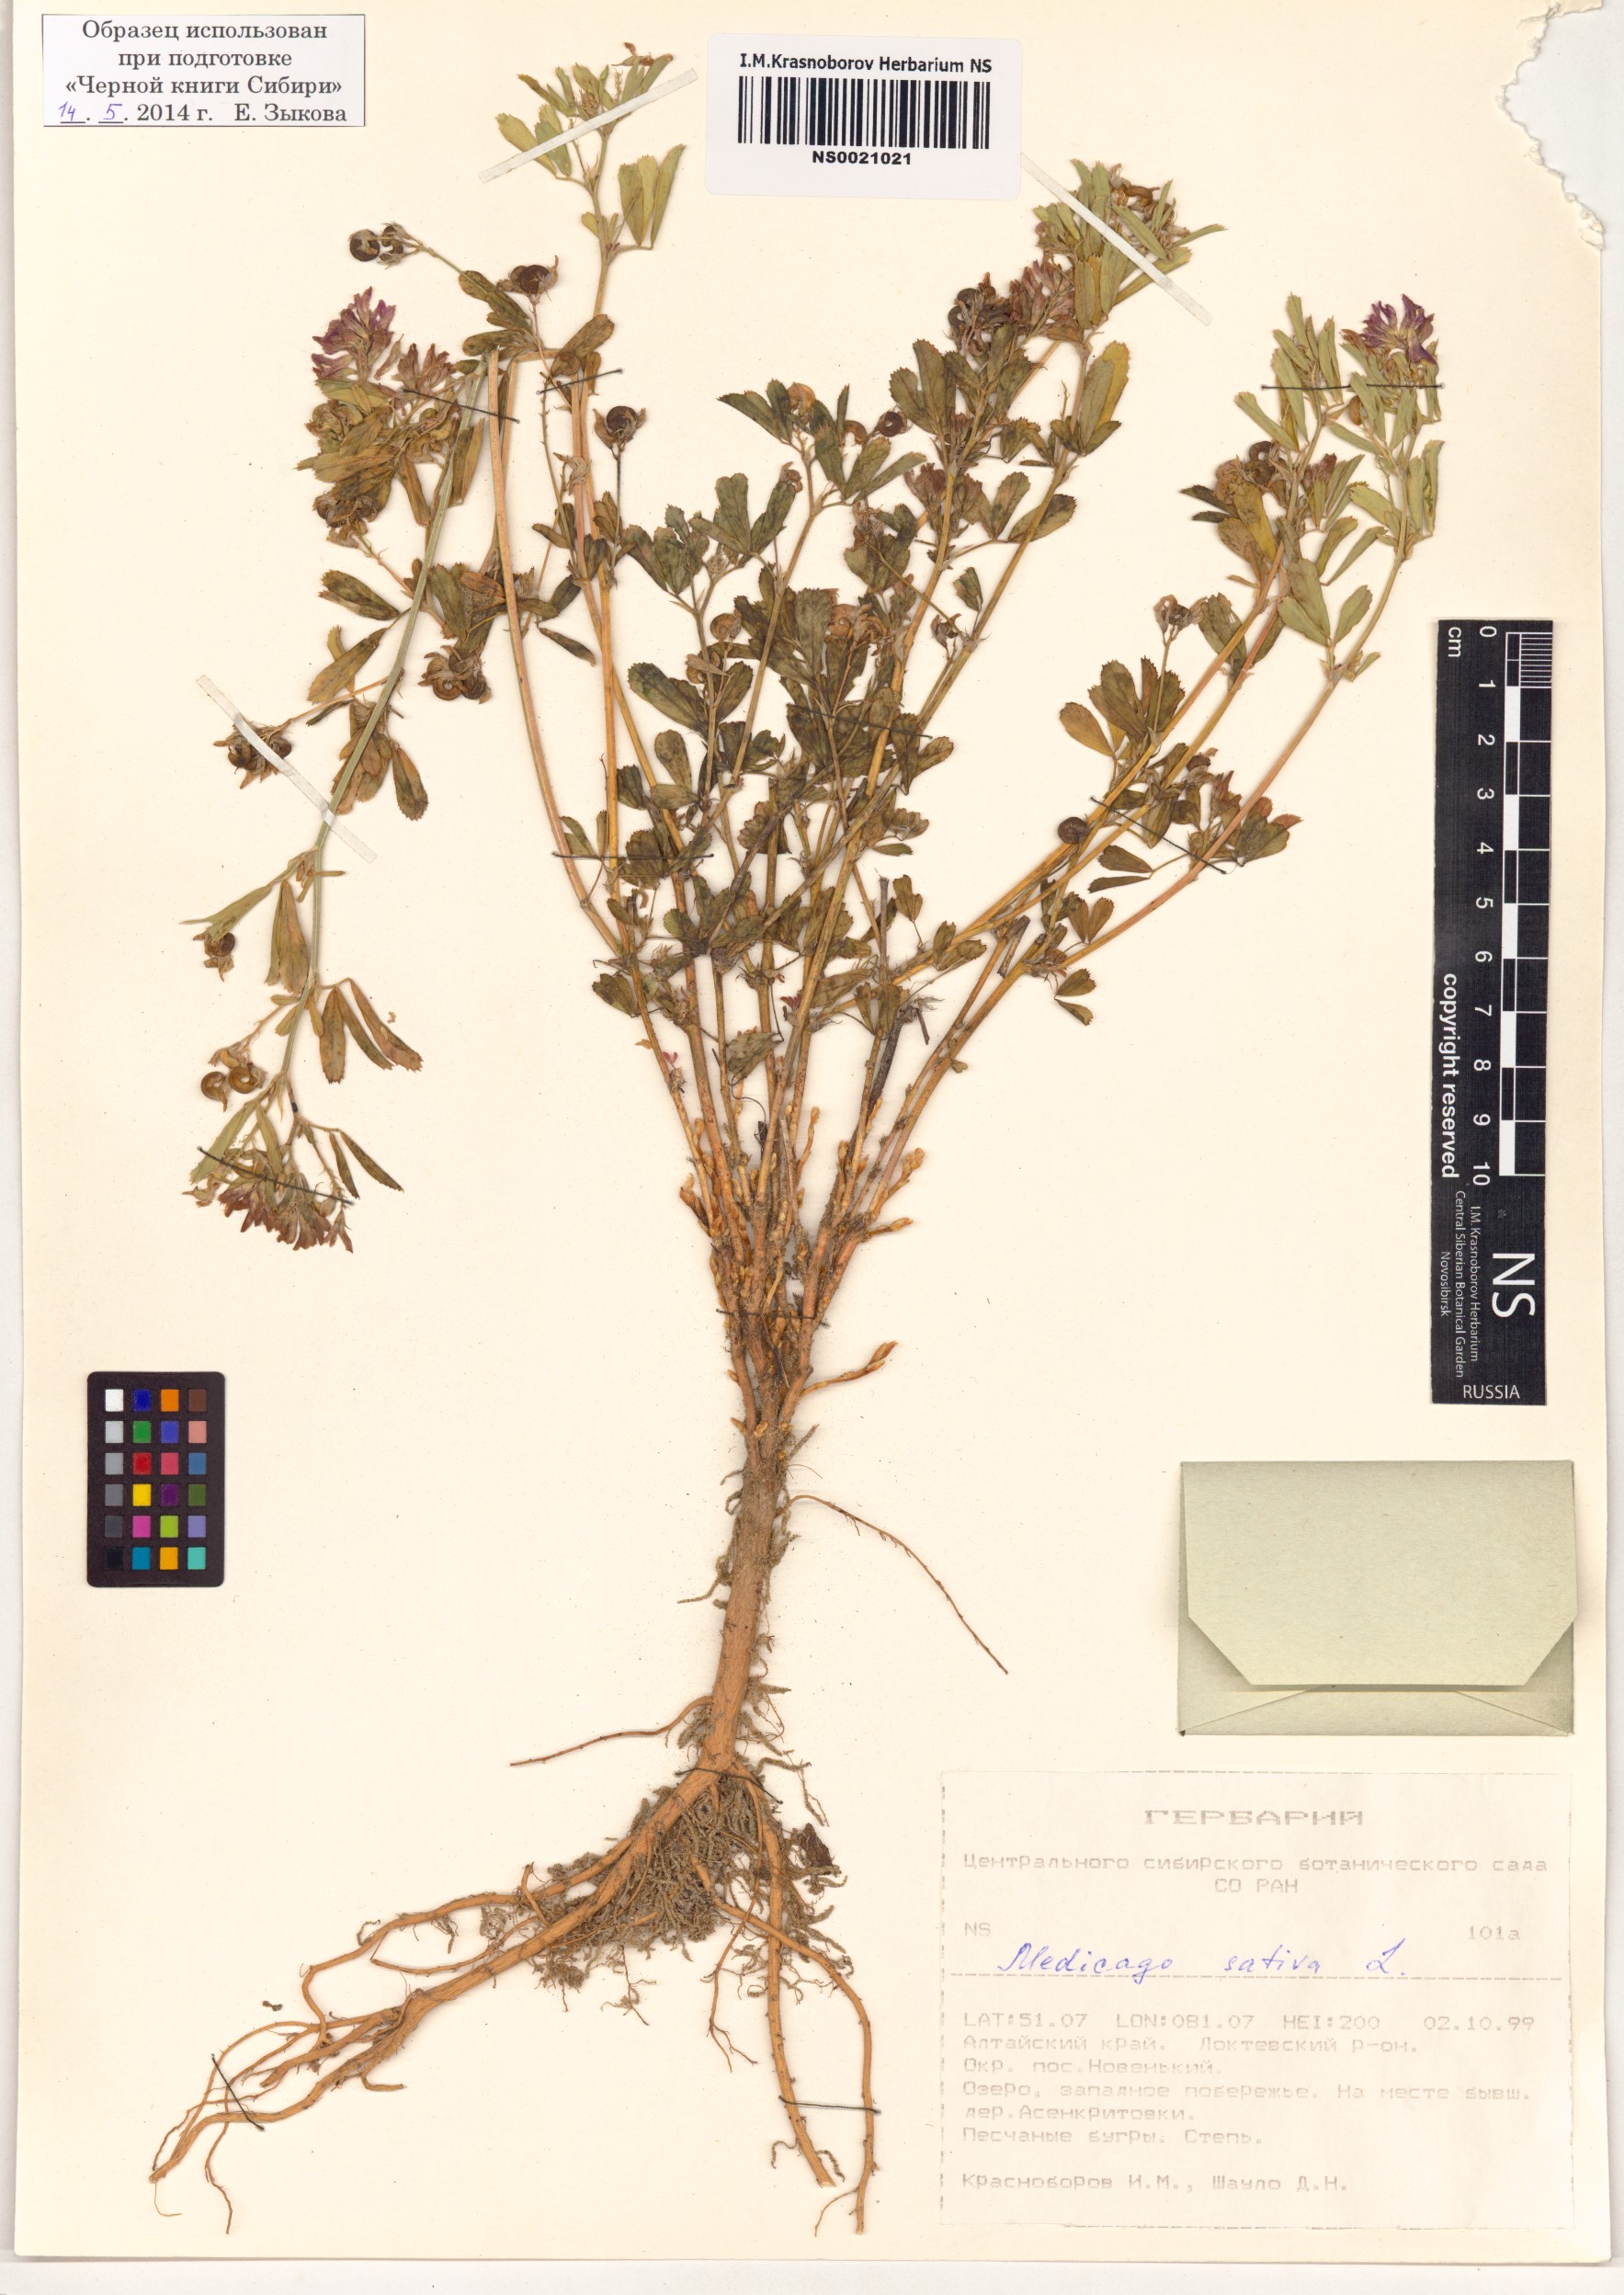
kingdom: Plantae
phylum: Tracheophyta
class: Magnoliopsida
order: Fabales
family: Fabaceae
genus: Medicago
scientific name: Medicago sativa
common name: Alfalfa
